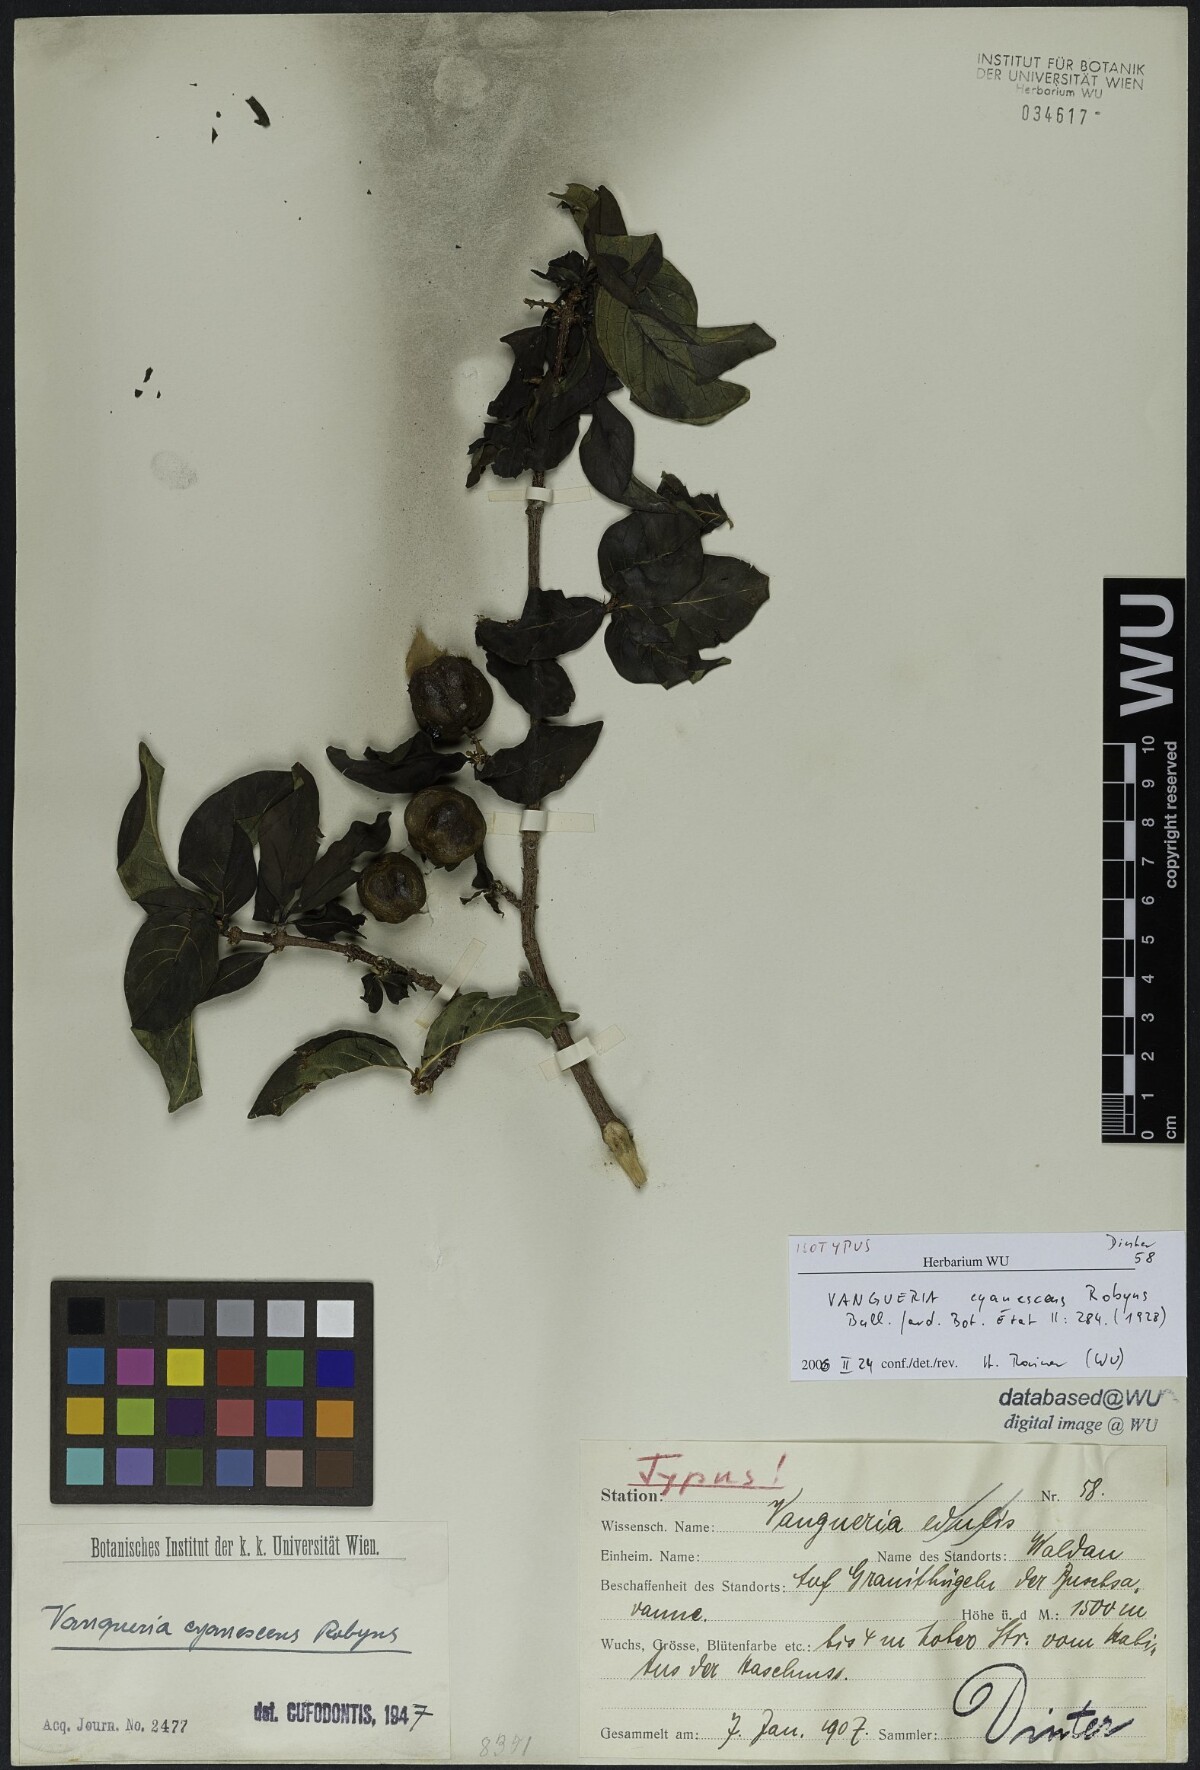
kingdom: Plantae
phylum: Tracheophyta
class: Magnoliopsida
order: Gentianales
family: Rubiaceae
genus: Vangueria
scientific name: Vangueria cyanescens
